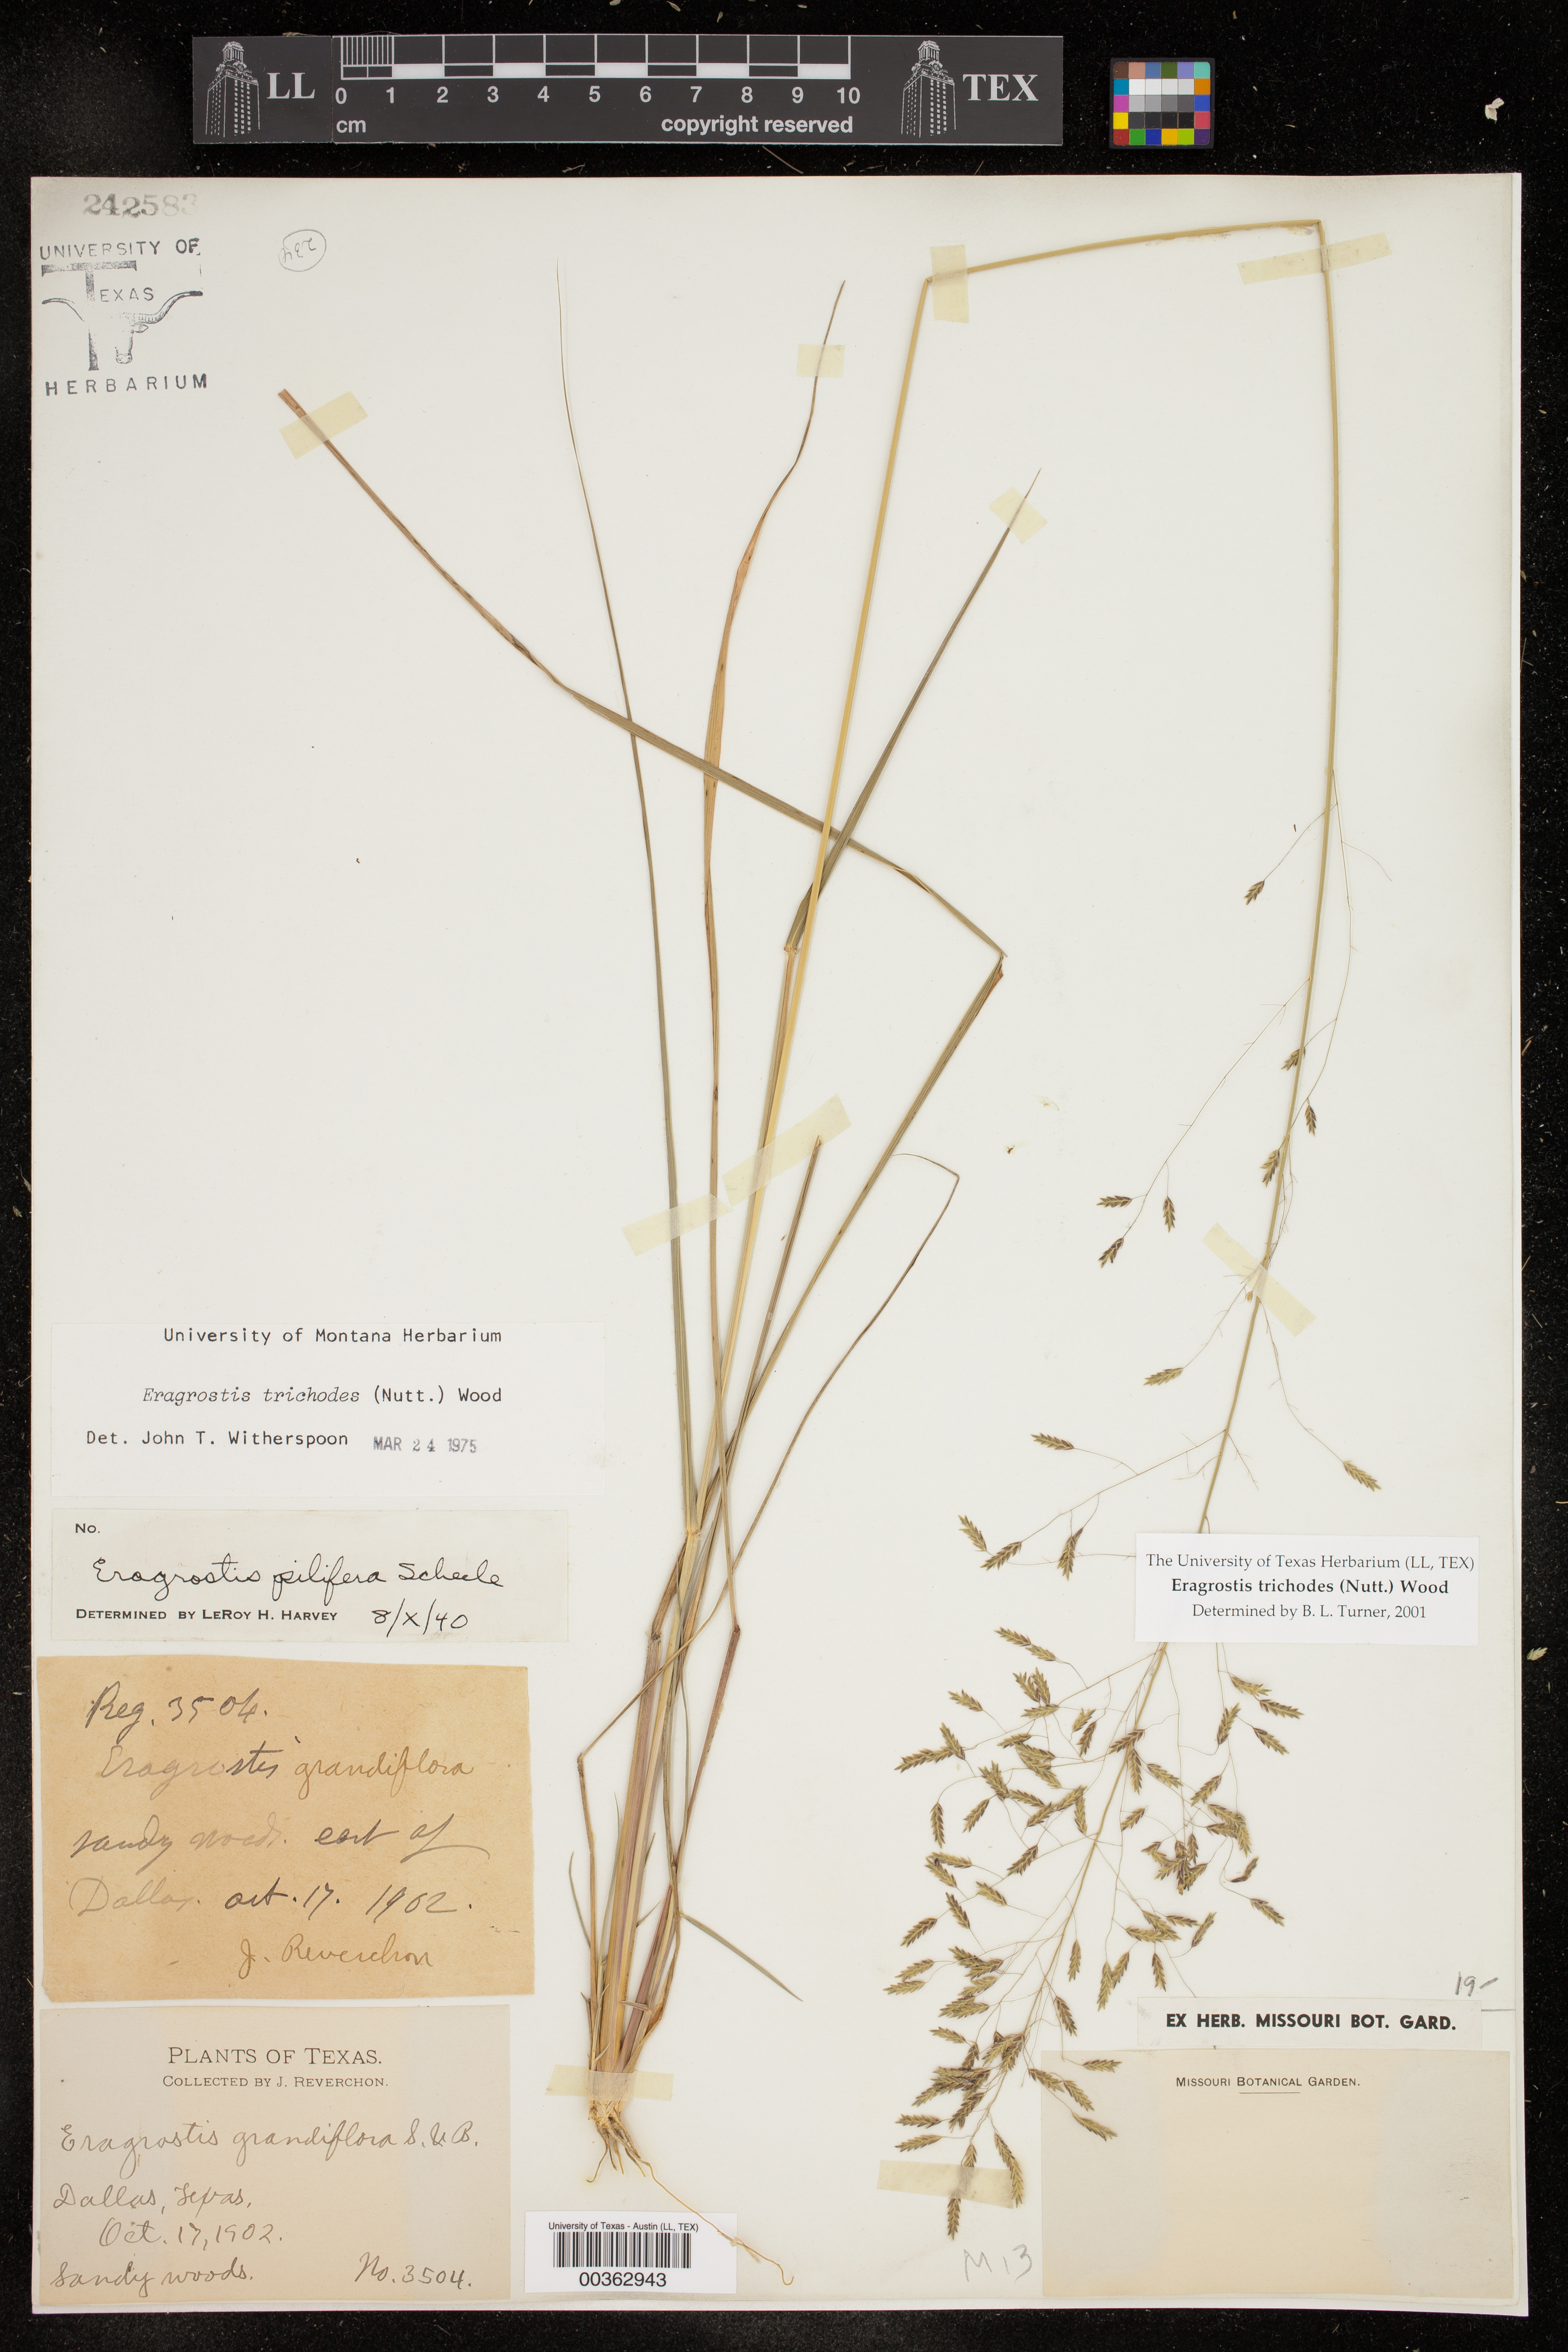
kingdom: Plantae
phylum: Tracheophyta
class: Liliopsida
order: Poales
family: Poaceae
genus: Eragrostis
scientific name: Eragrostis trichodes
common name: Sand love grass
